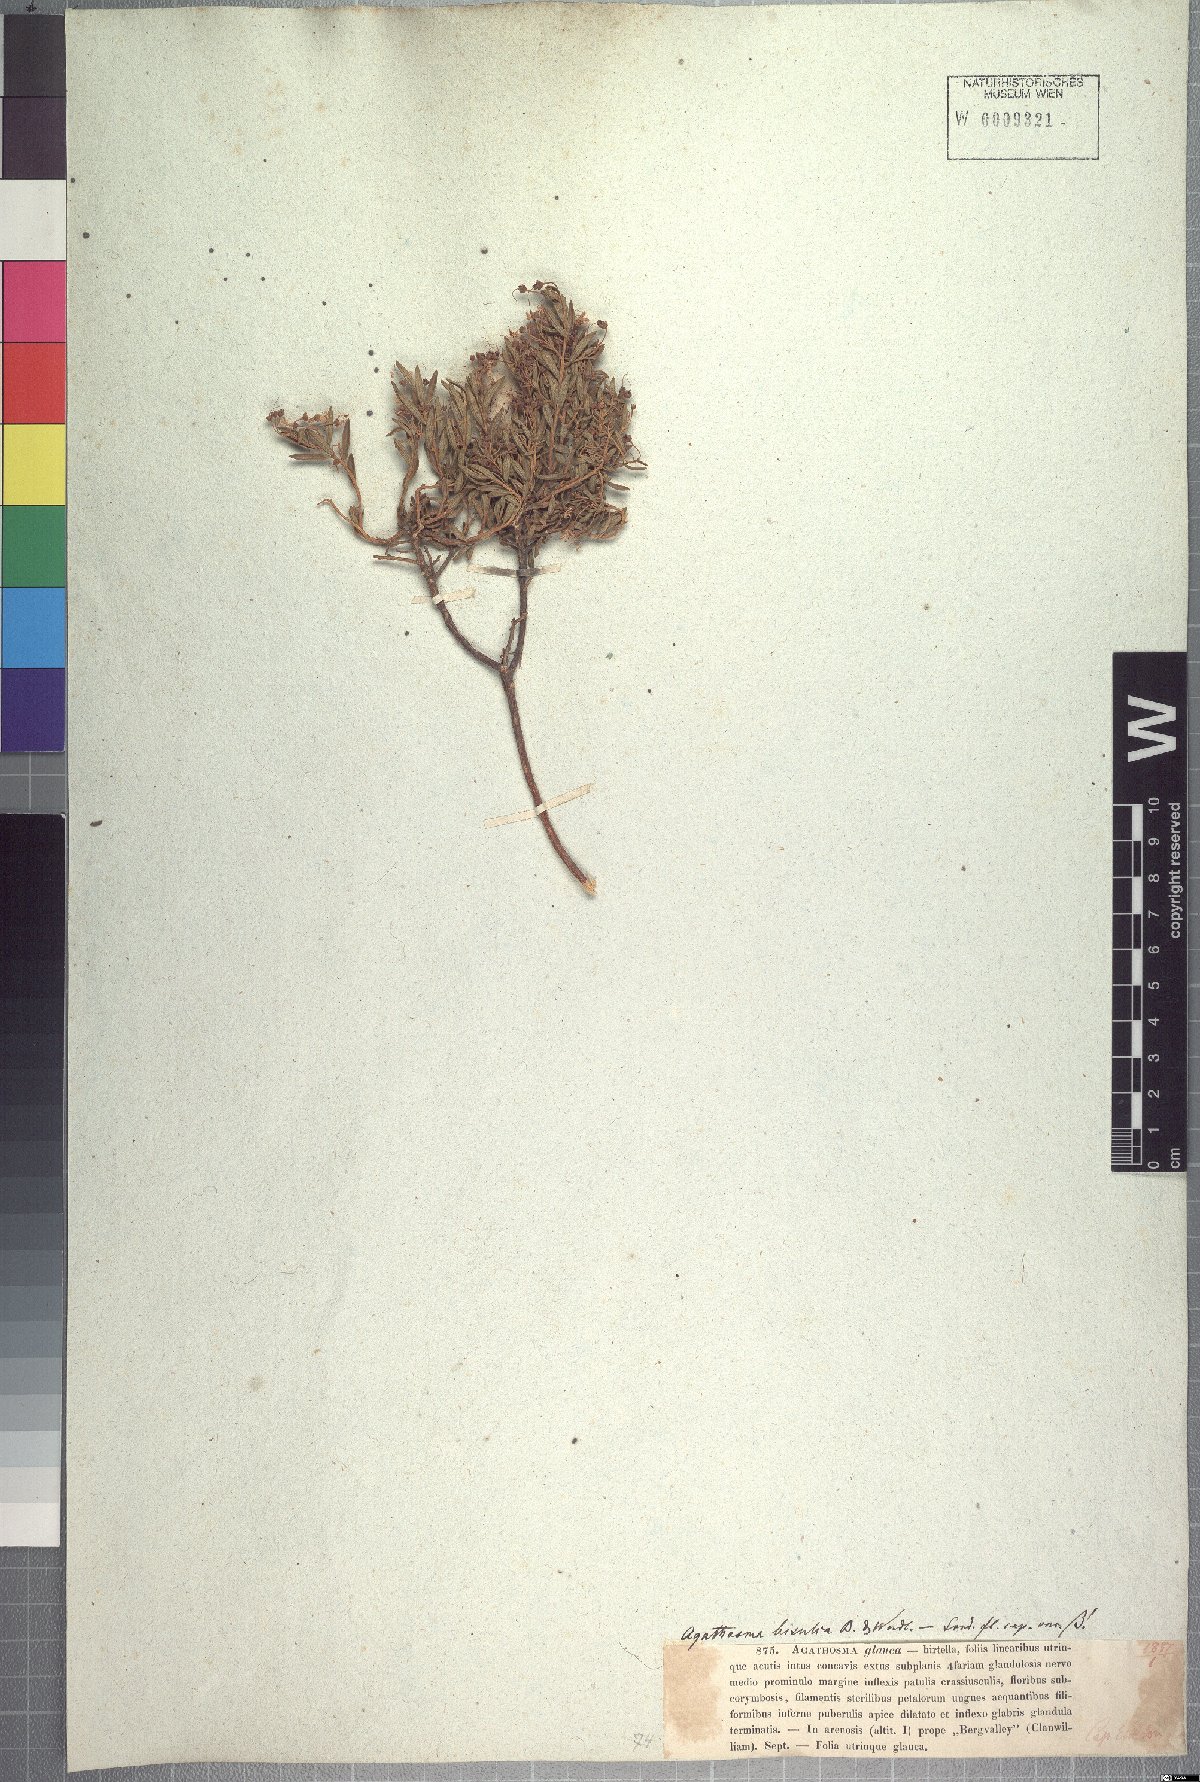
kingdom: Plantae
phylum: Tracheophyta
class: Magnoliopsida
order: Sapindales
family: Rutaceae
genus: Agathosma
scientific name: Agathosma bisulca
